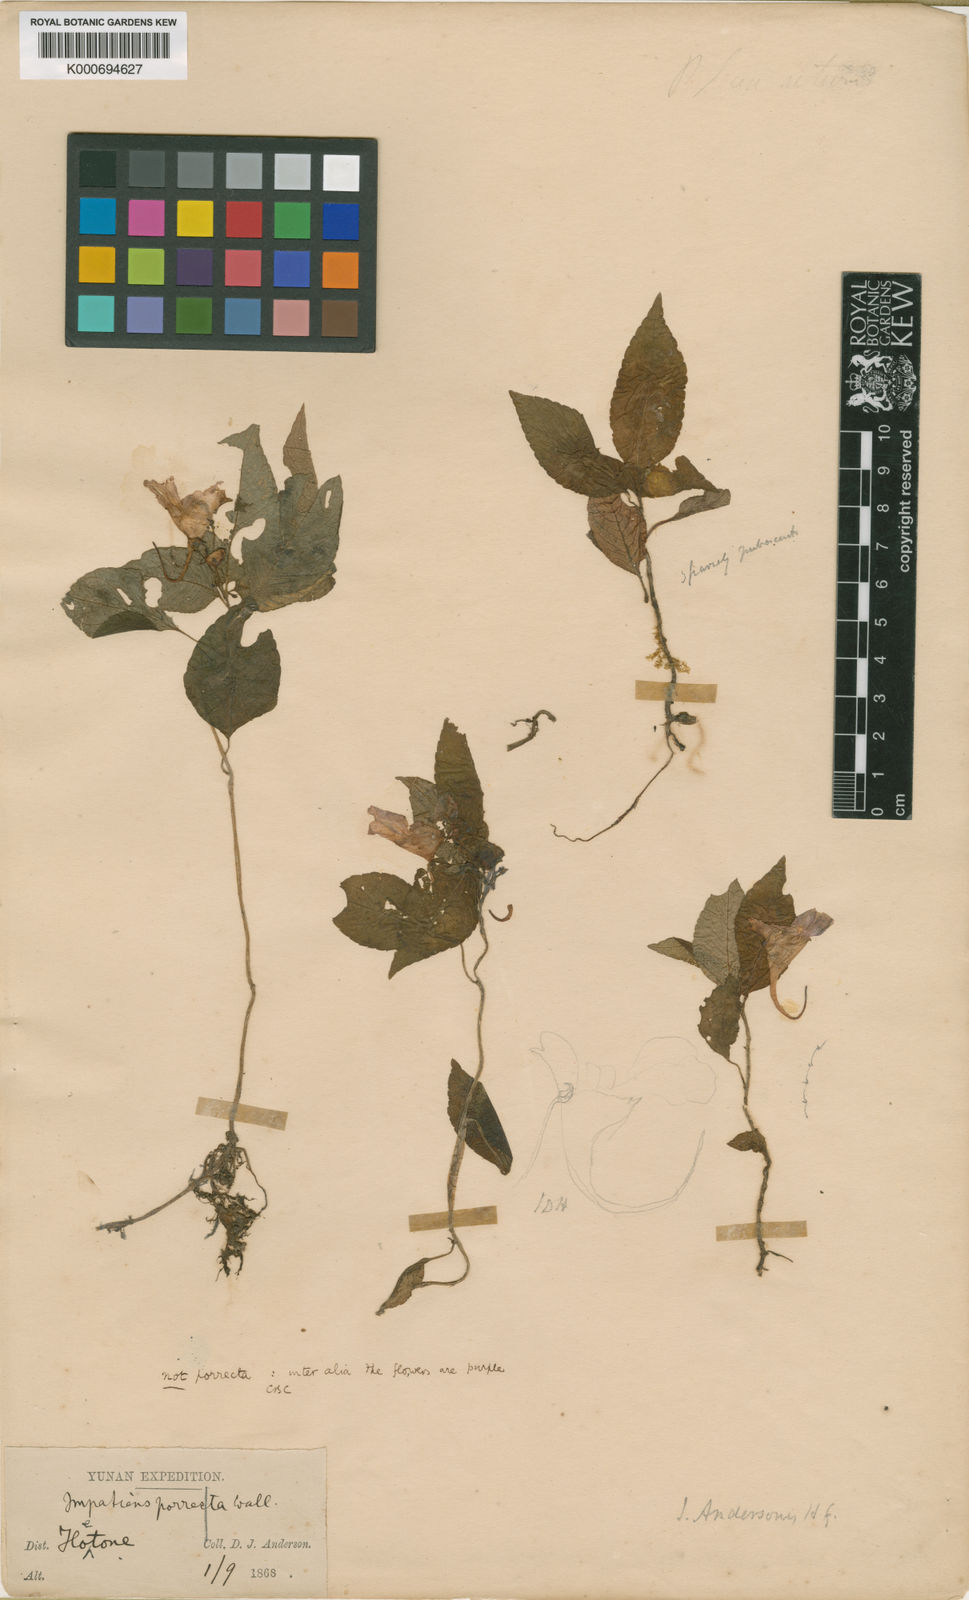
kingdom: Plantae
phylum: Tracheophyta
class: Magnoliopsida
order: Ericales
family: Balsaminaceae
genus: Impatiens
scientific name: Impatiens porrecta
